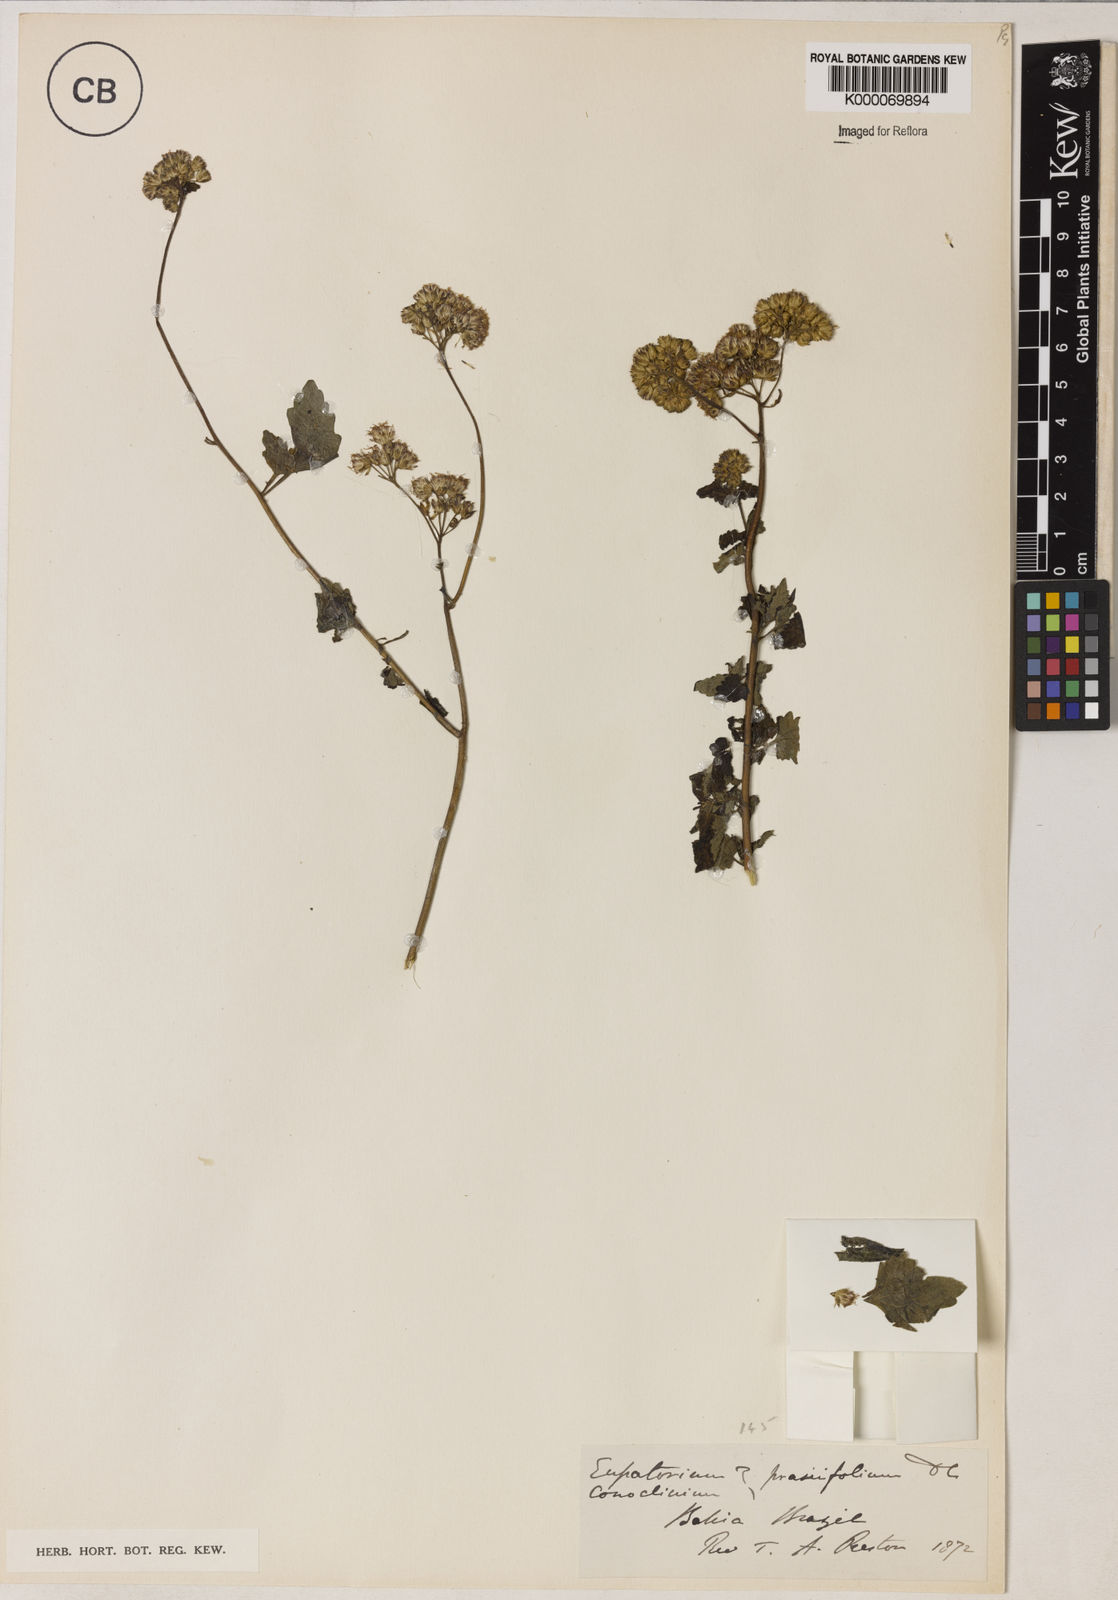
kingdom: Plantae
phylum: Tracheophyta
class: Magnoliopsida
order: Asterales
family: Asteraceae
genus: Conocliniopsis
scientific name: Conocliniopsis grossedentata
